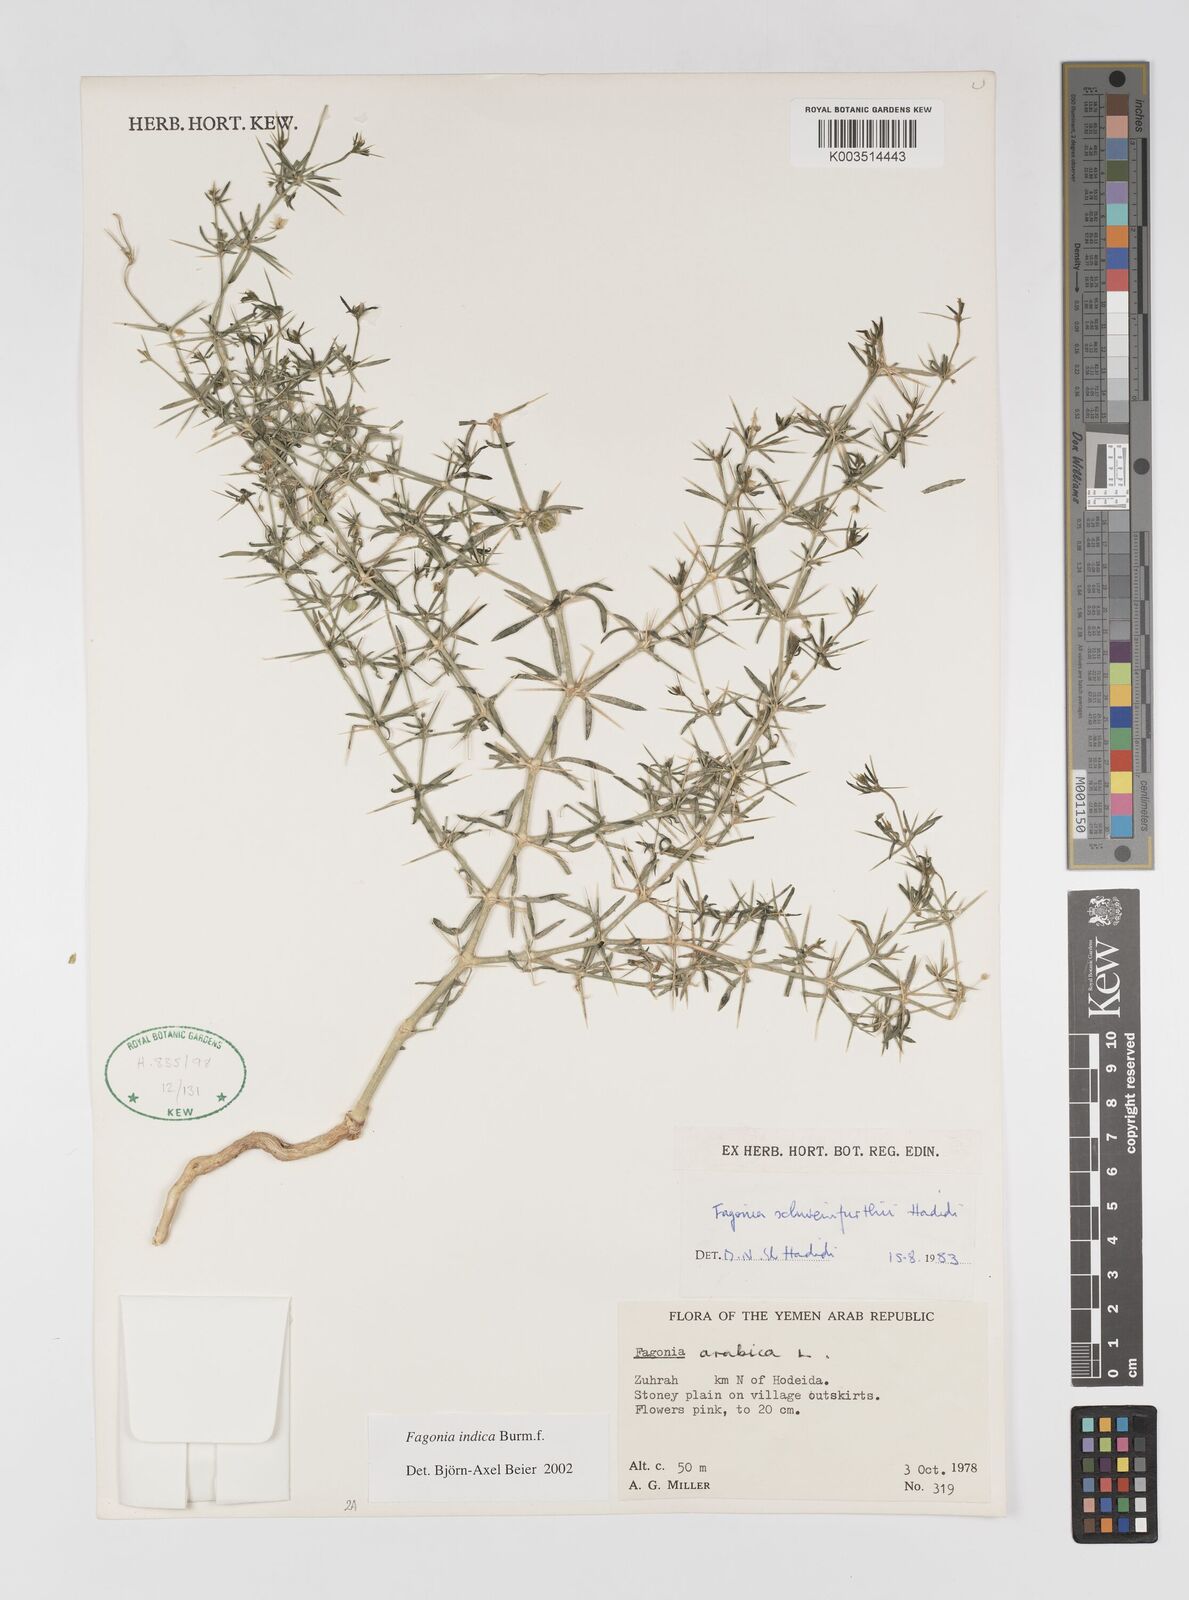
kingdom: Plantae
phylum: Tracheophyta
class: Magnoliopsida
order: Zygophyllales
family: Zygophyllaceae
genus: Fagonia
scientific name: Fagonia indica
